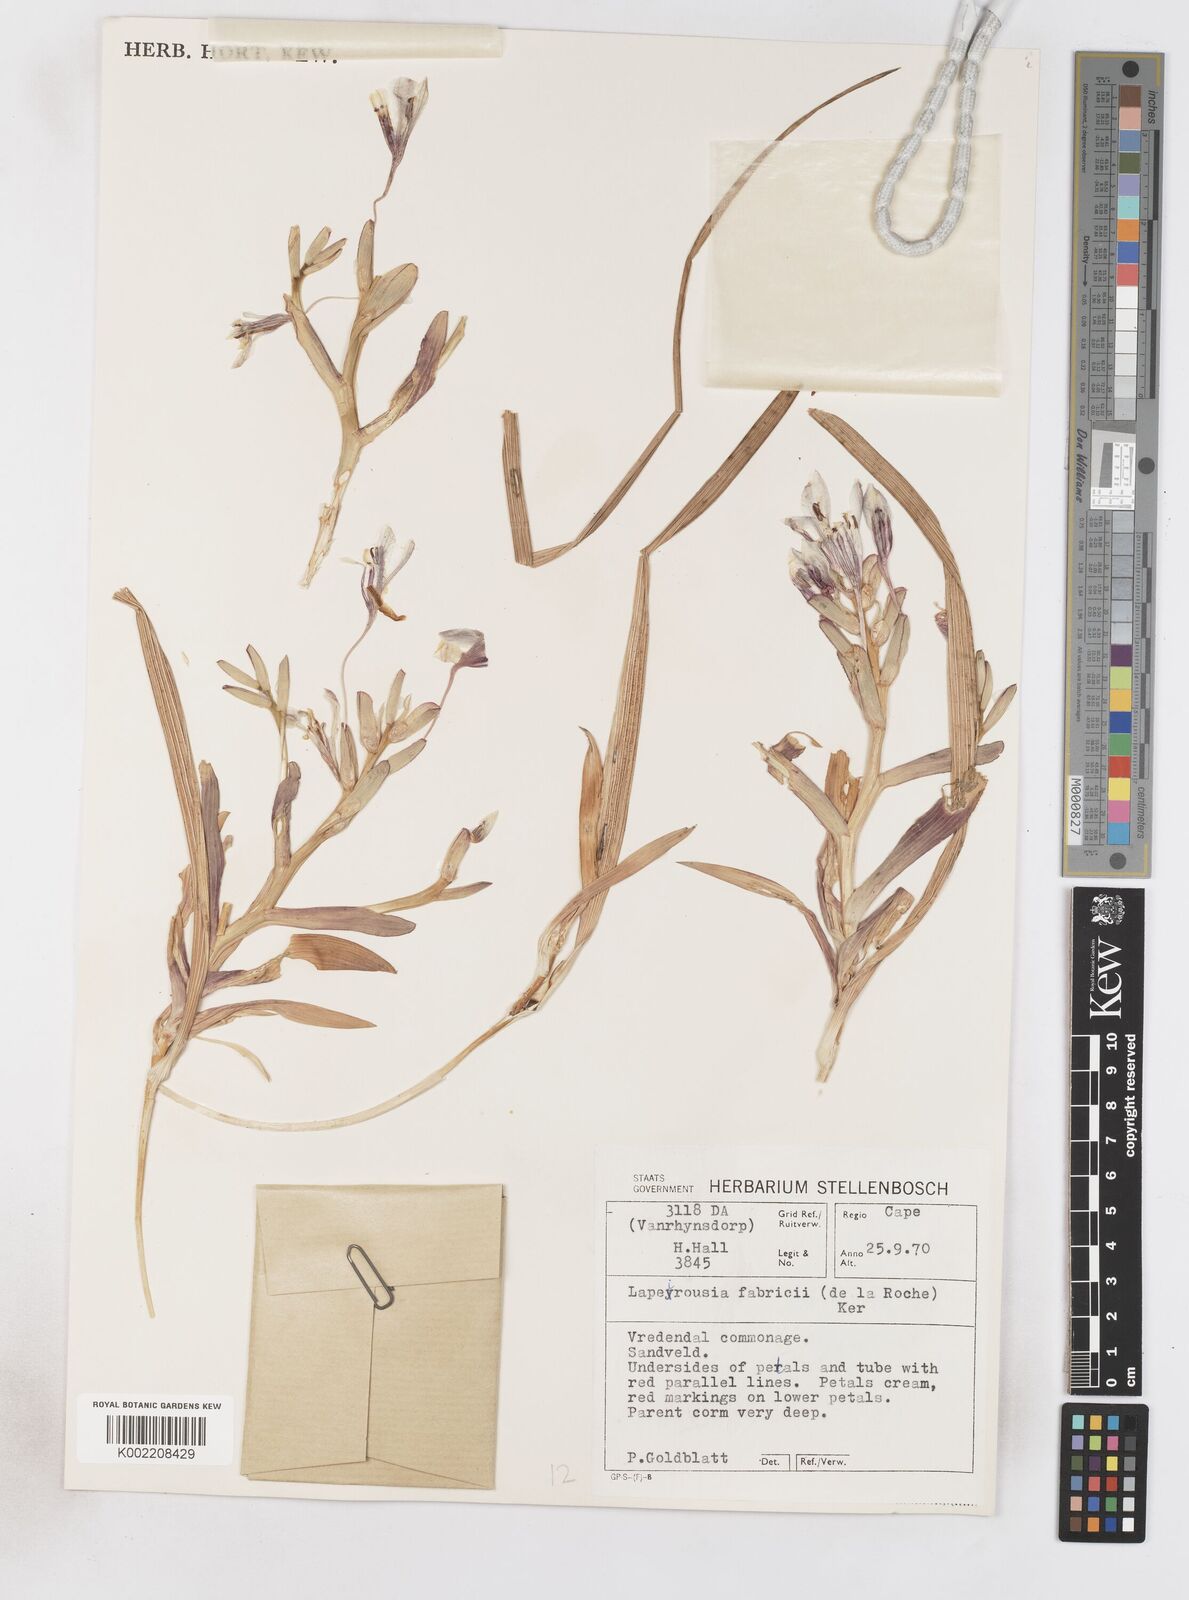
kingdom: Plantae
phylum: Tracheophyta
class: Liliopsida
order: Asparagales
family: Iridaceae
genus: Lapeirousia
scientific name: Lapeirousia fabricii
